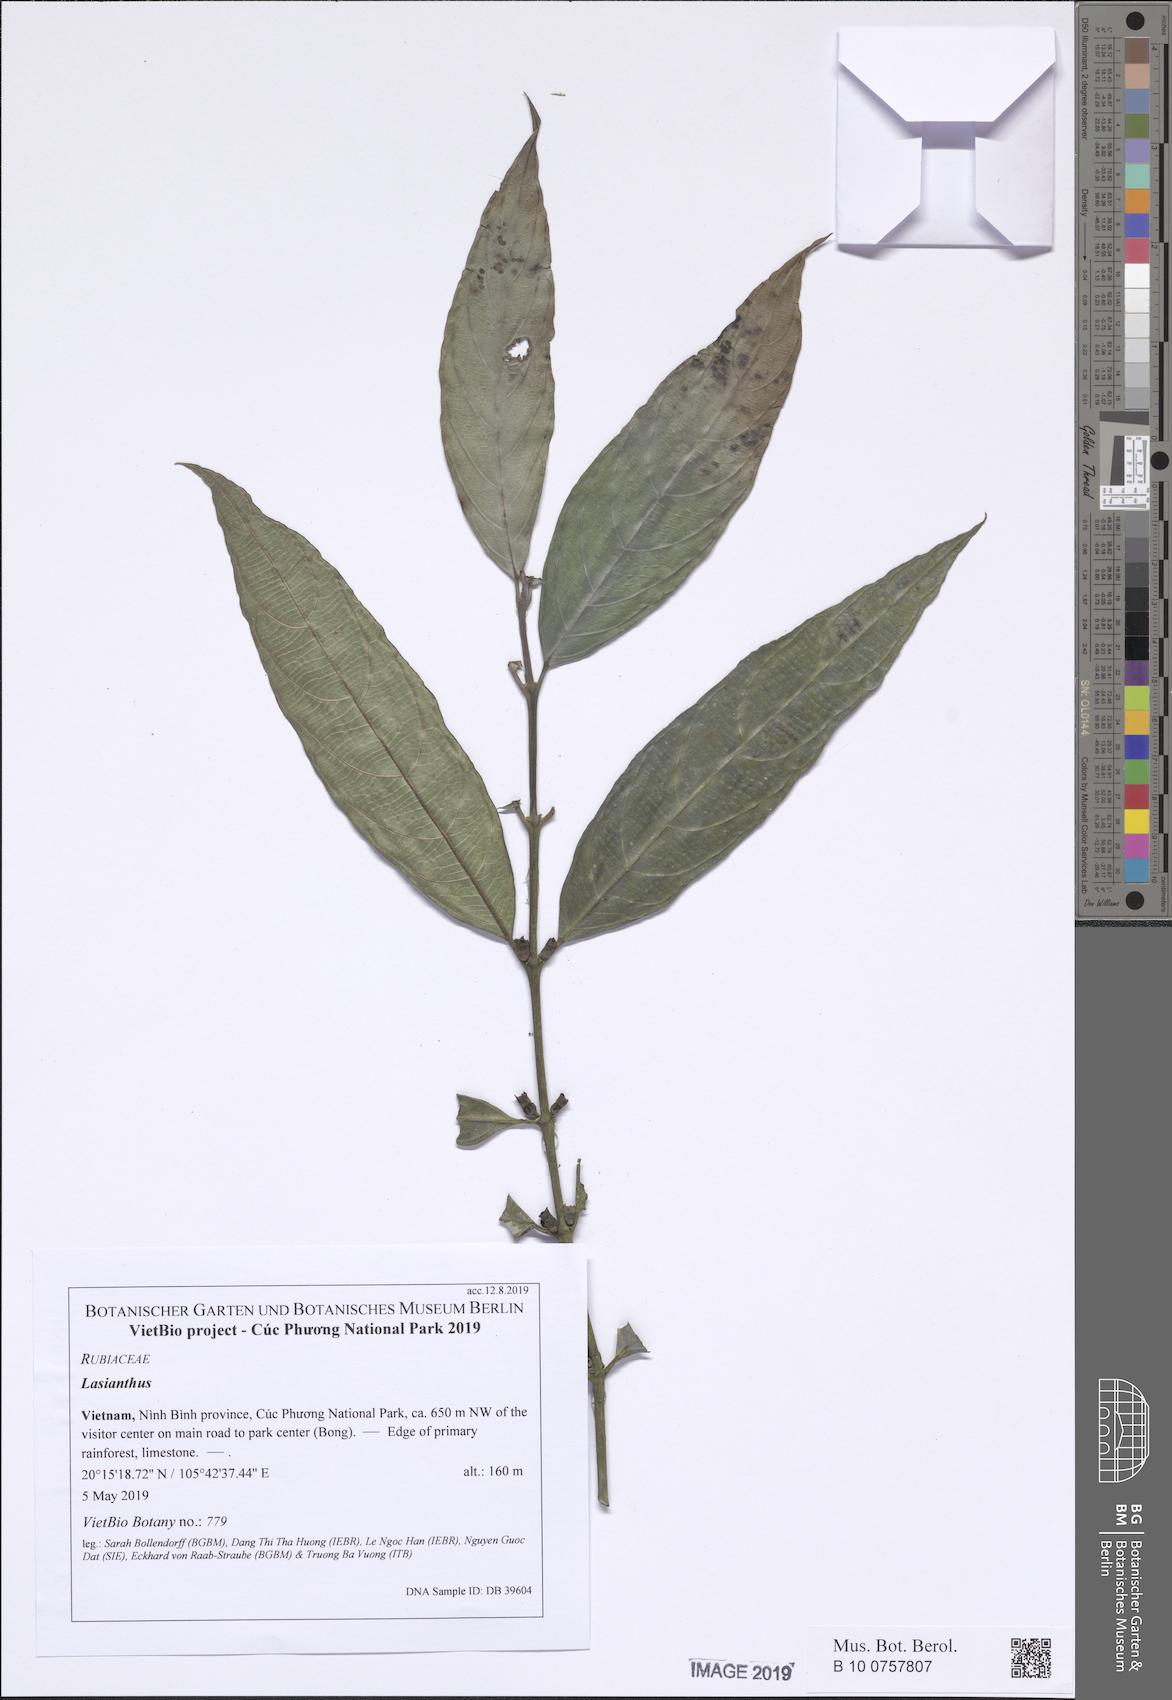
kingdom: Plantae
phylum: Tracheophyta
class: Magnoliopsida
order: Gentianales
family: Rubiaceae
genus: Lasianthus
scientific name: Lasianthus
